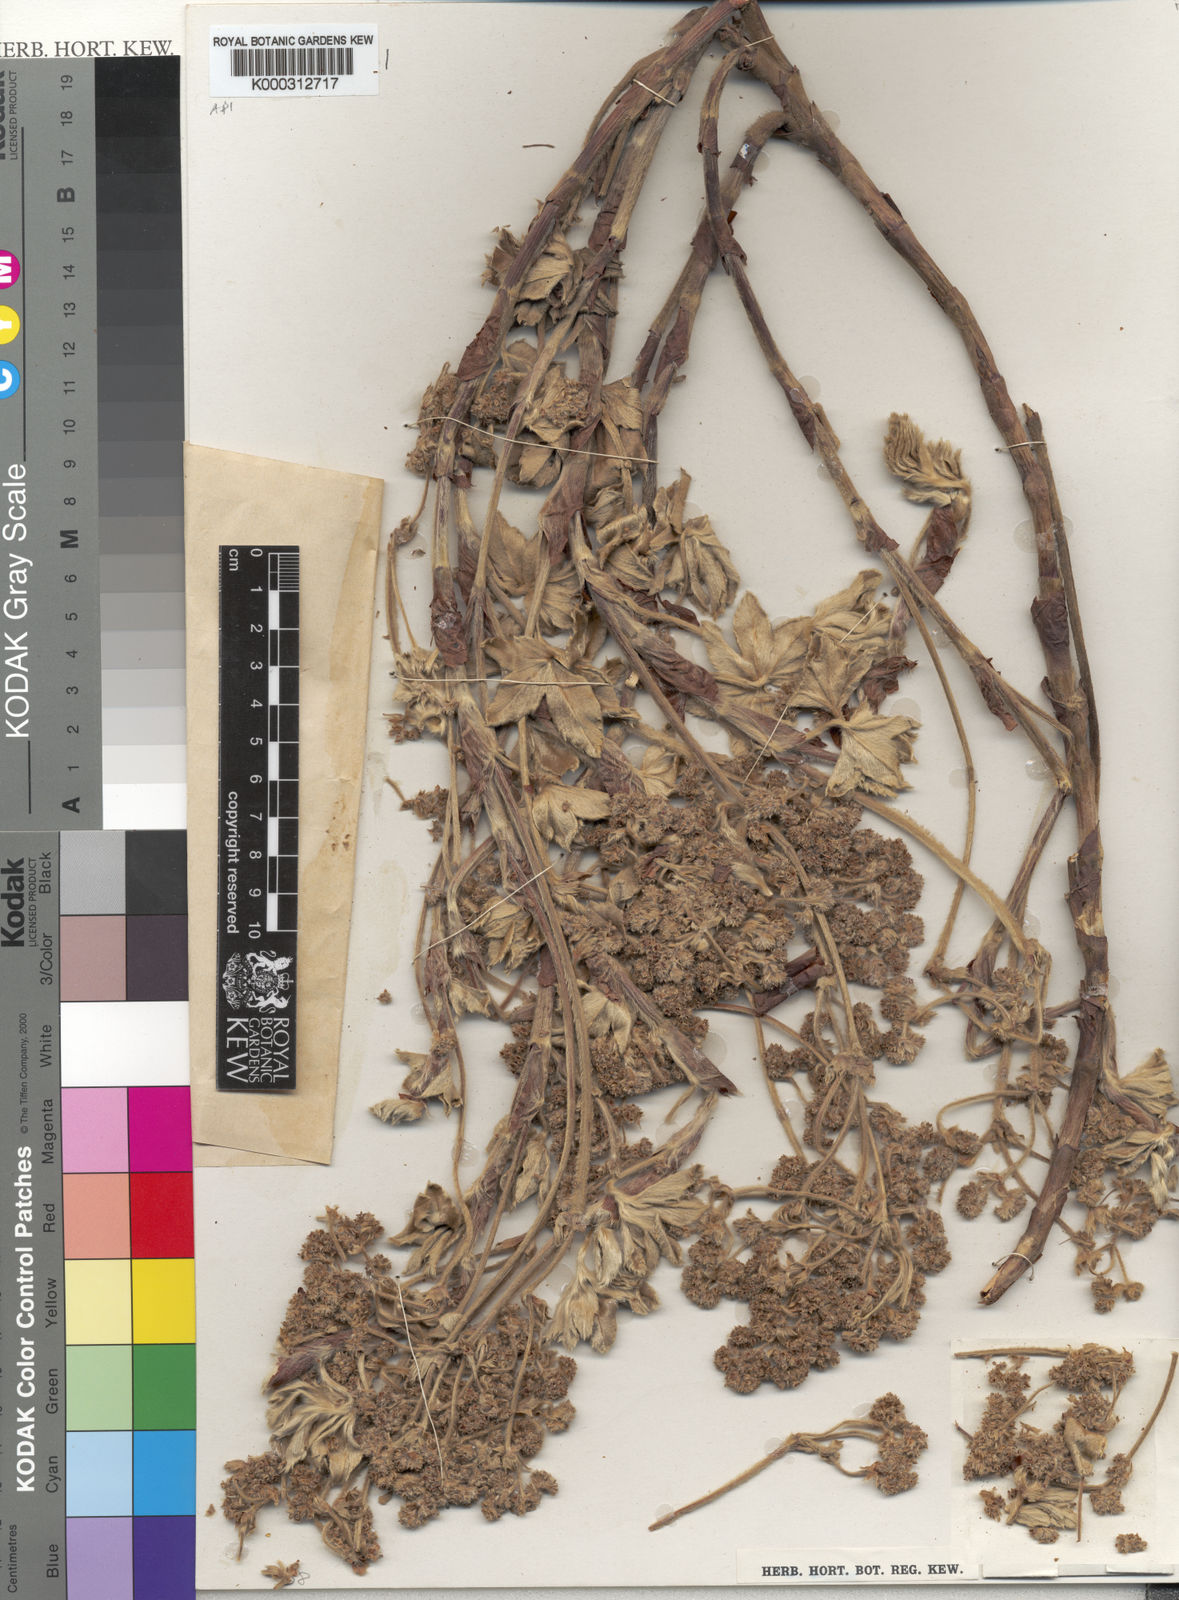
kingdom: Plantae
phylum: Tracheophyta
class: Magnoliopsida
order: Rosales
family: Rosaceae
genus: Alchemilla
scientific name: Alchemilla hendrickxii
